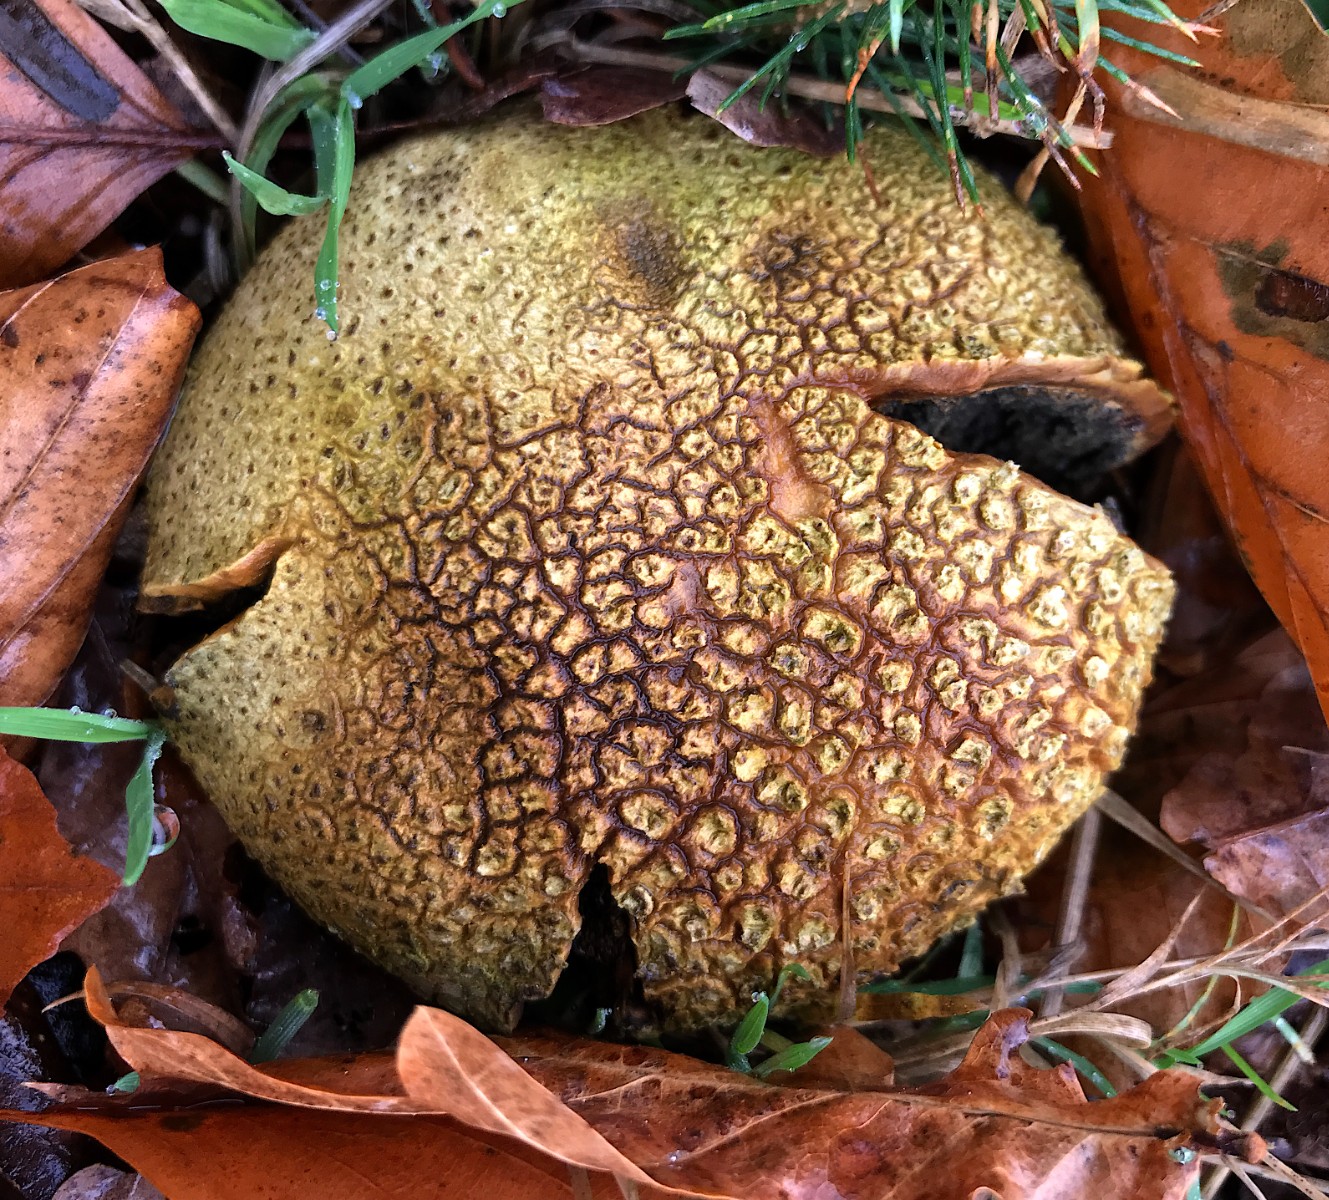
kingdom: Fungi
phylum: Basidiomycota
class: Agaricomycetes
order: Boletales
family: Sclerodermataceae
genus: Scleroderma
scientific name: Scleroderma citrinum
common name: almindelig bruskbold
